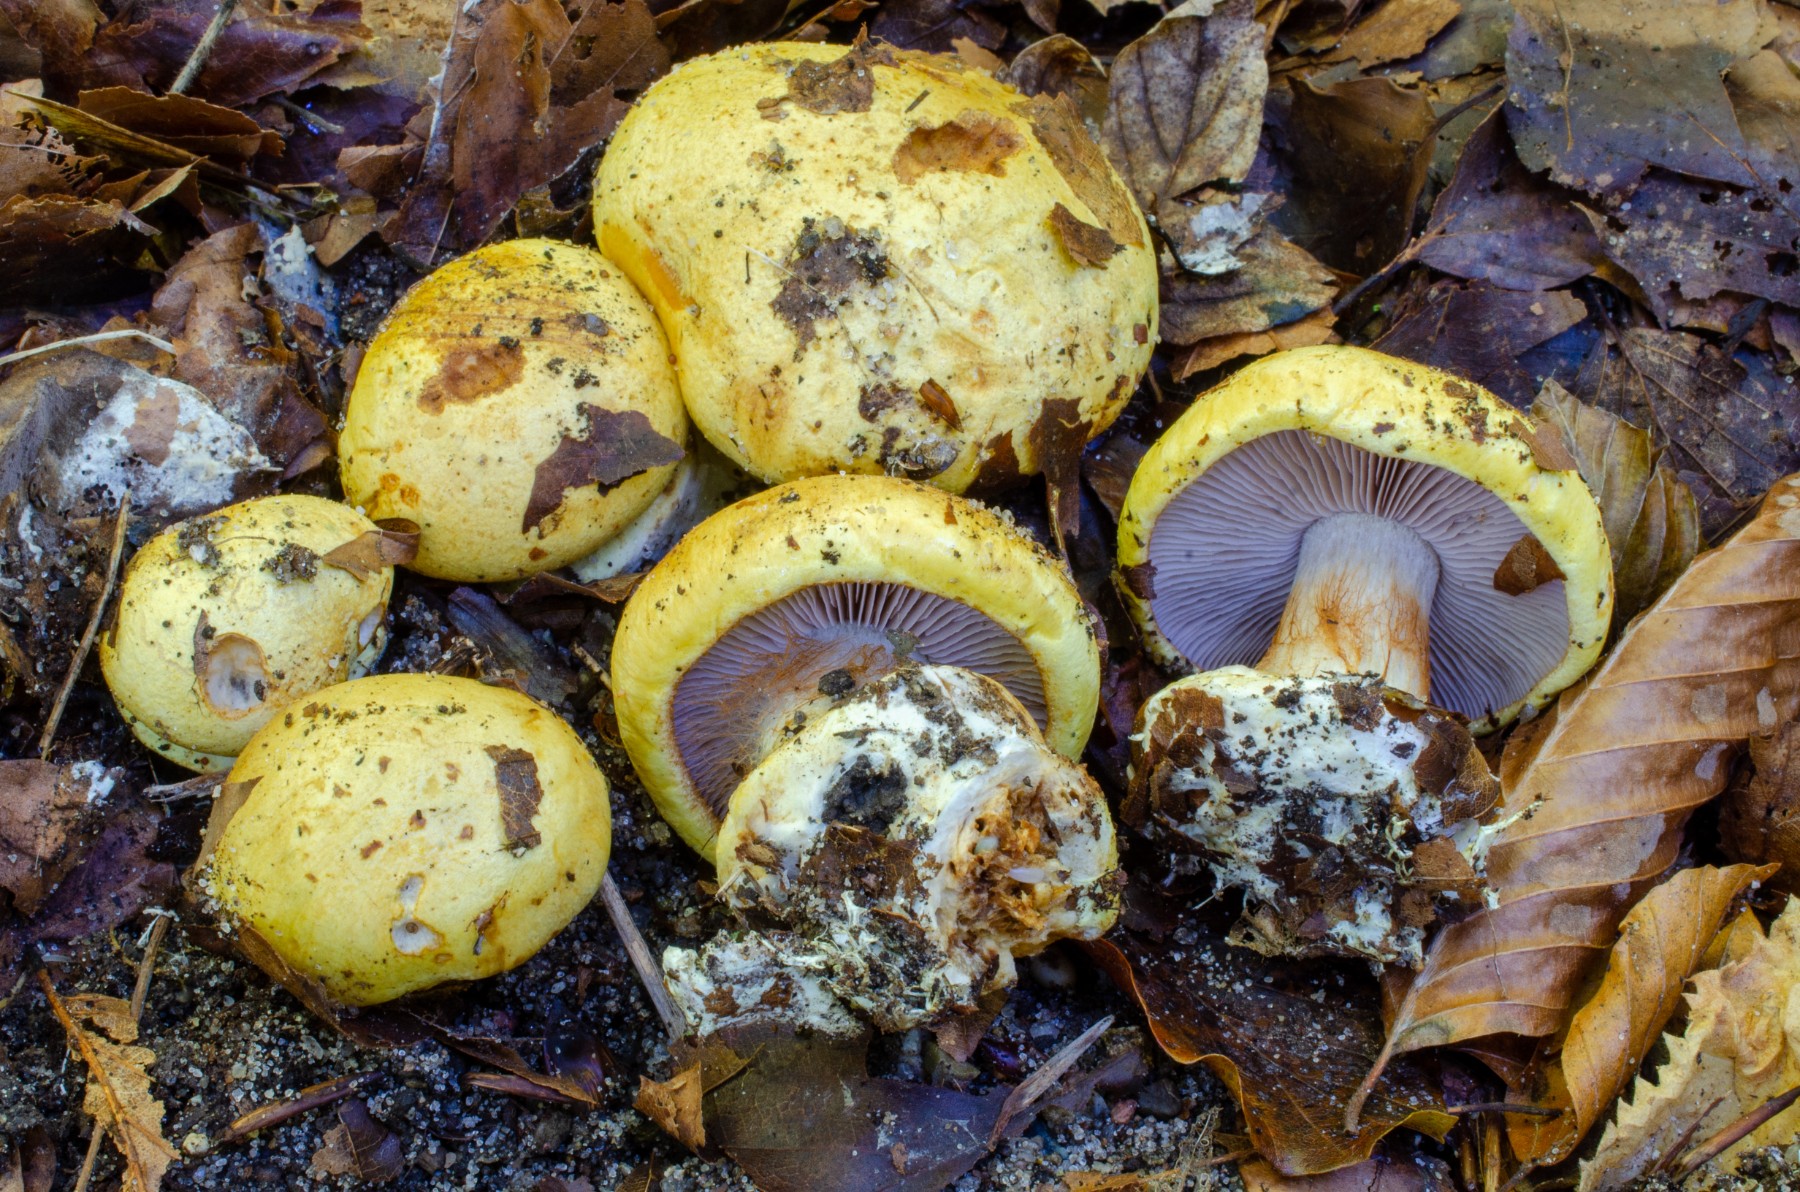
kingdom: Fungi
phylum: Basidiomycota
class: Agaricomycetes
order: Agaricales
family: Cortinariaceae
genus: Calonarius
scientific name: Calonarius citrinus
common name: citrongul slørhat
